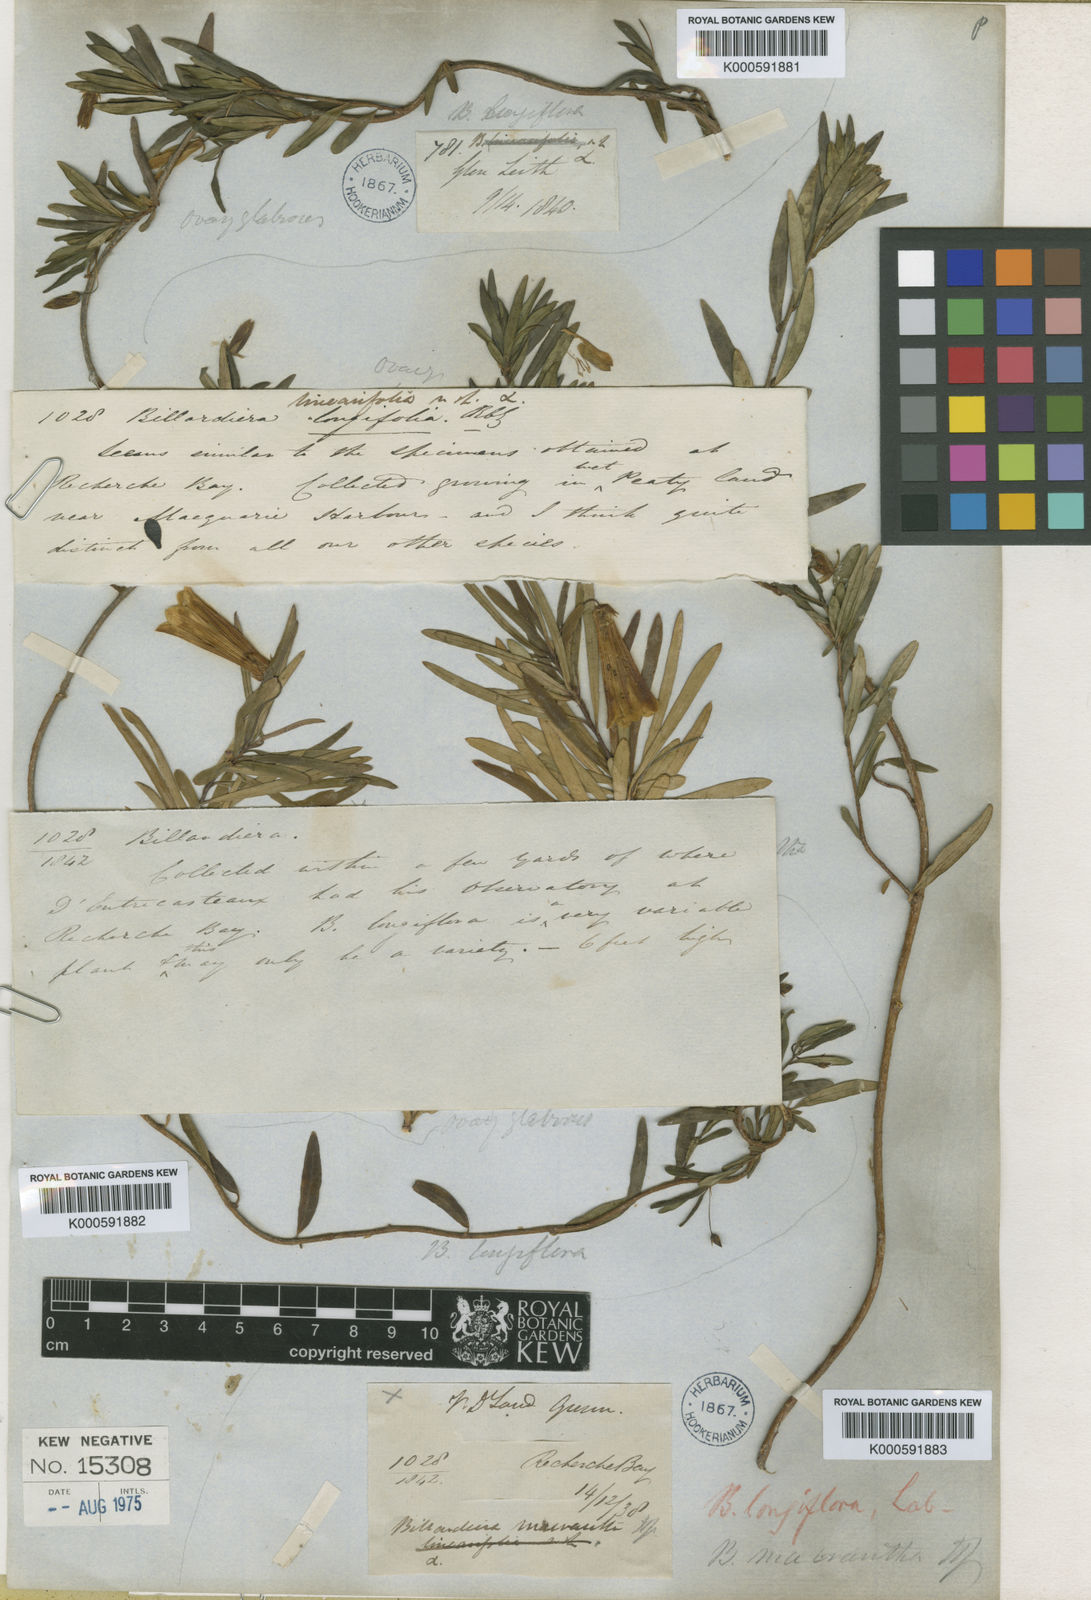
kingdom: Plantae
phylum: Tracheophyta
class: Magnoliopsida
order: Apiales
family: Pittosporaceae
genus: Billardiera
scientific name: Billardiera longiflora
